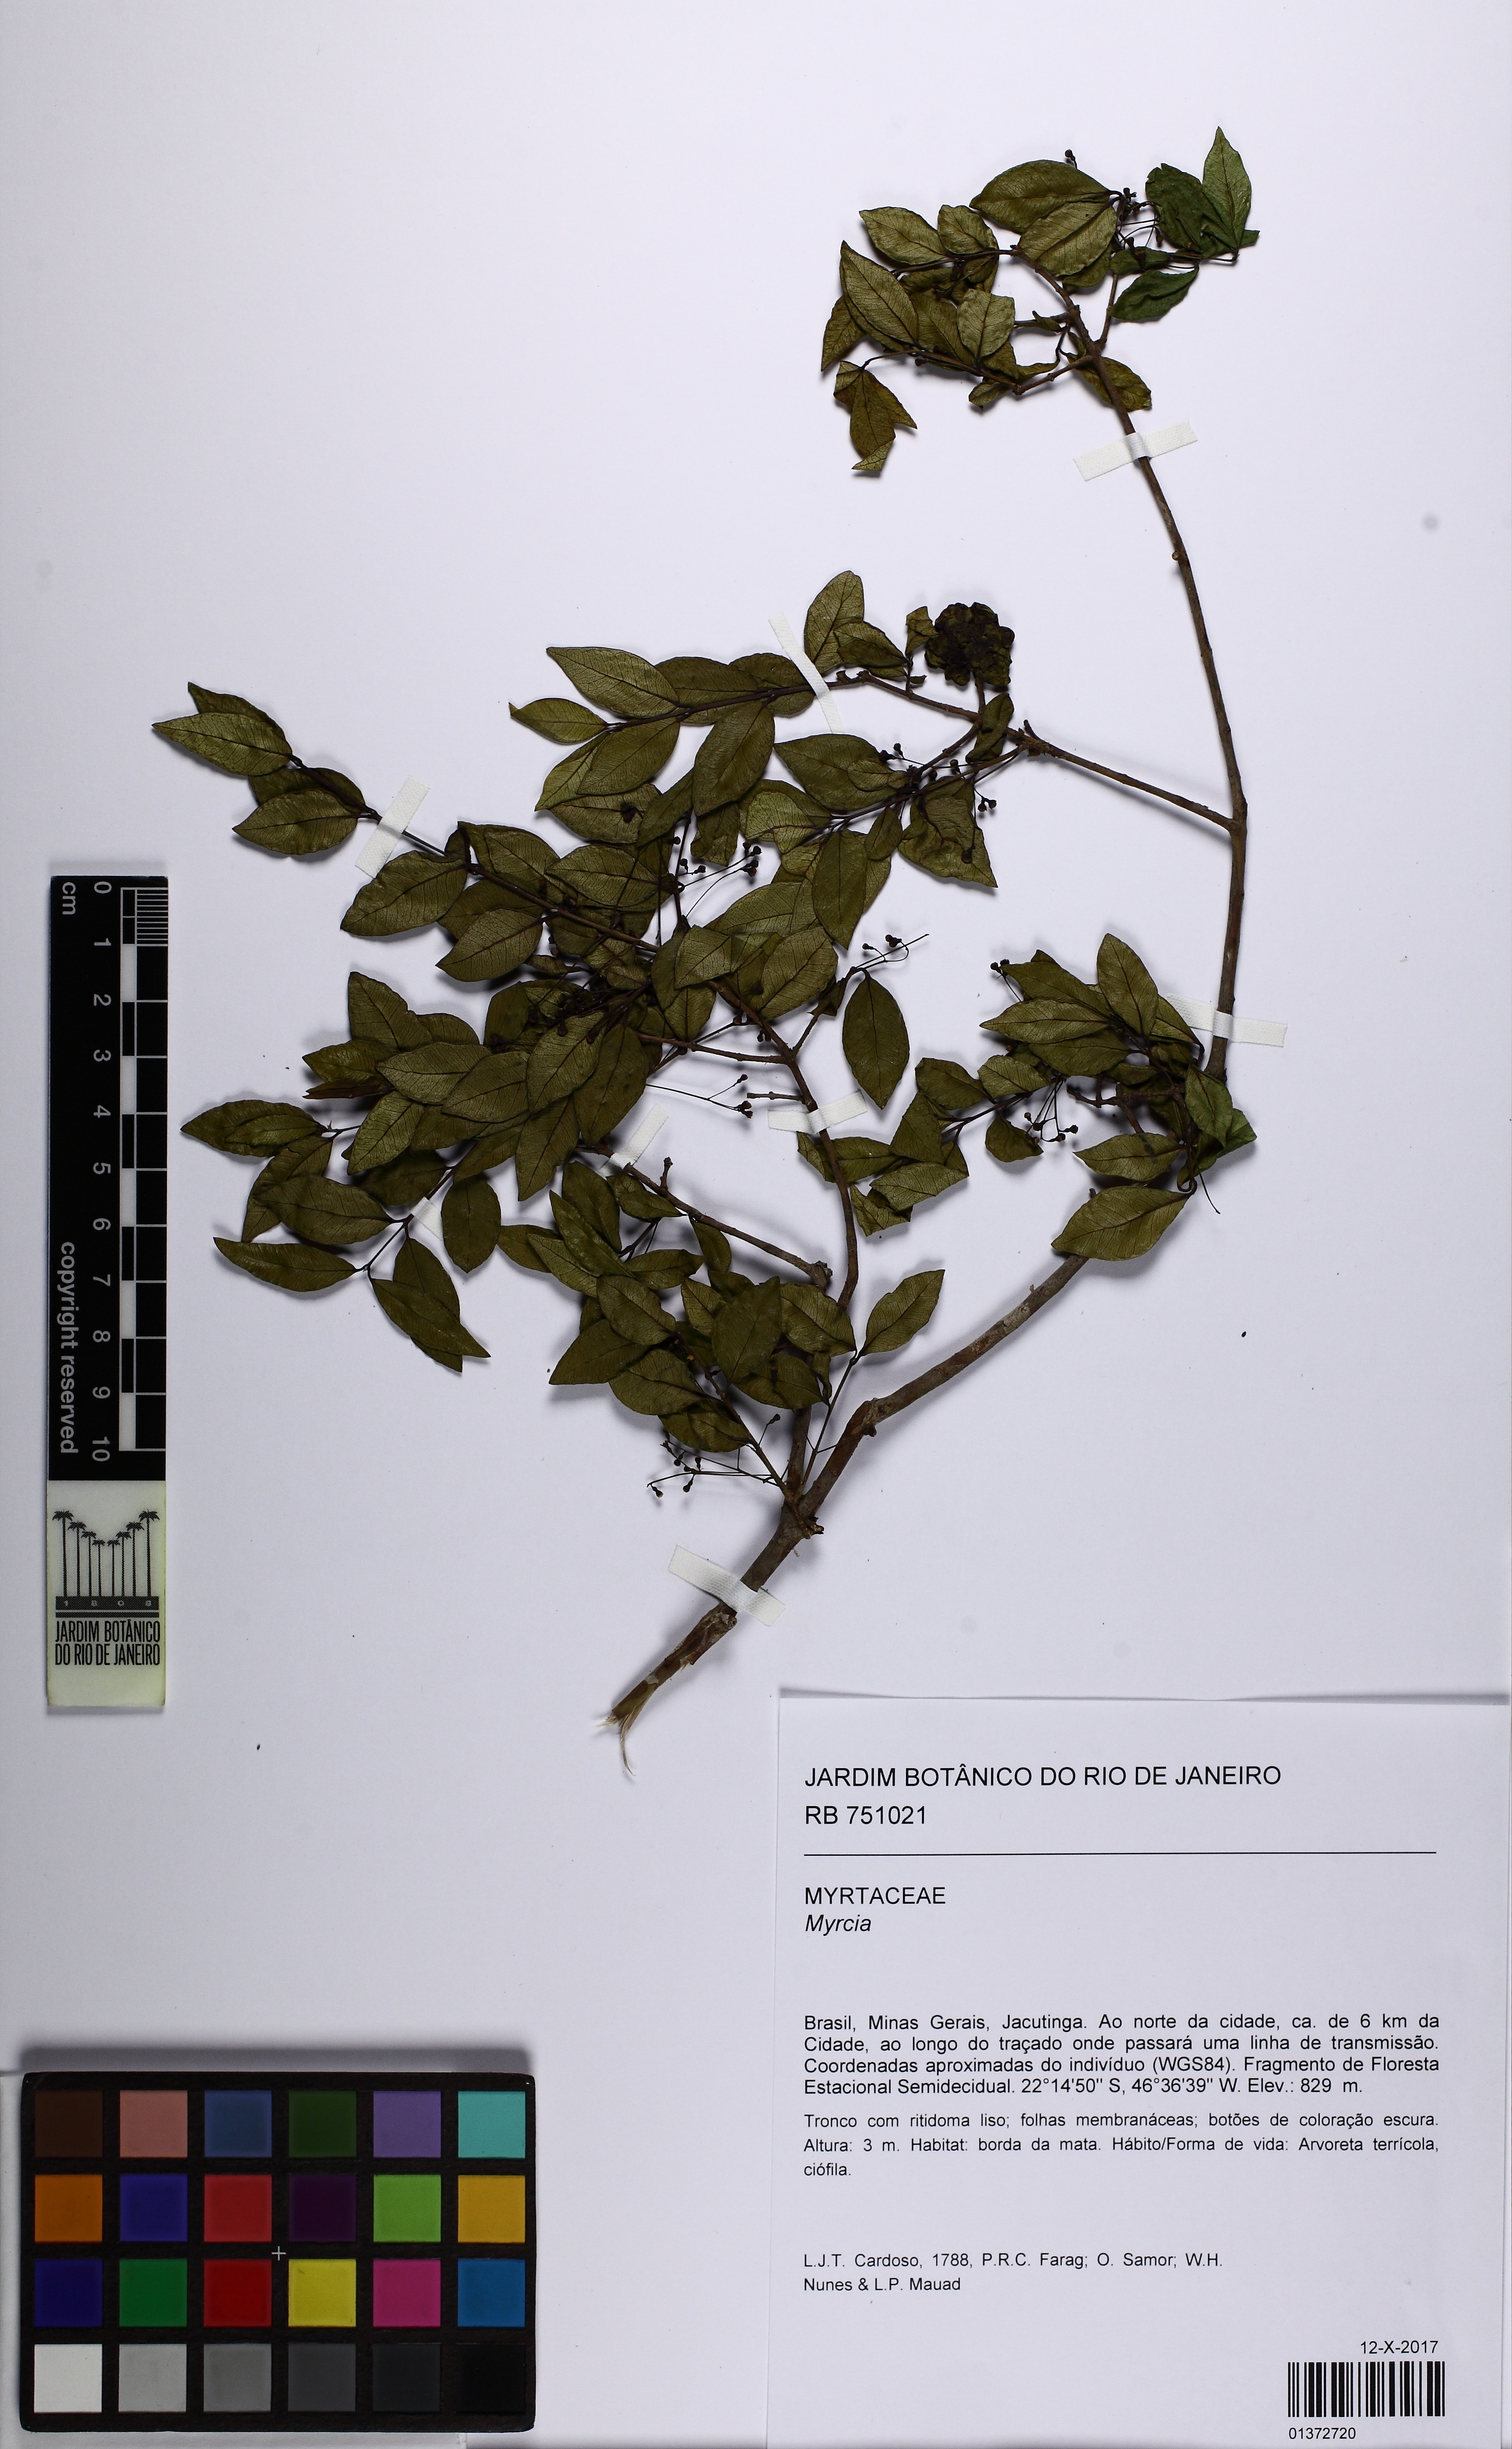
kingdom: Plantae
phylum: Tracheophyta
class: Magnoliopsida
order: Myrtales
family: Myrtaceae
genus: Myrcia
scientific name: Myrcia selloi
